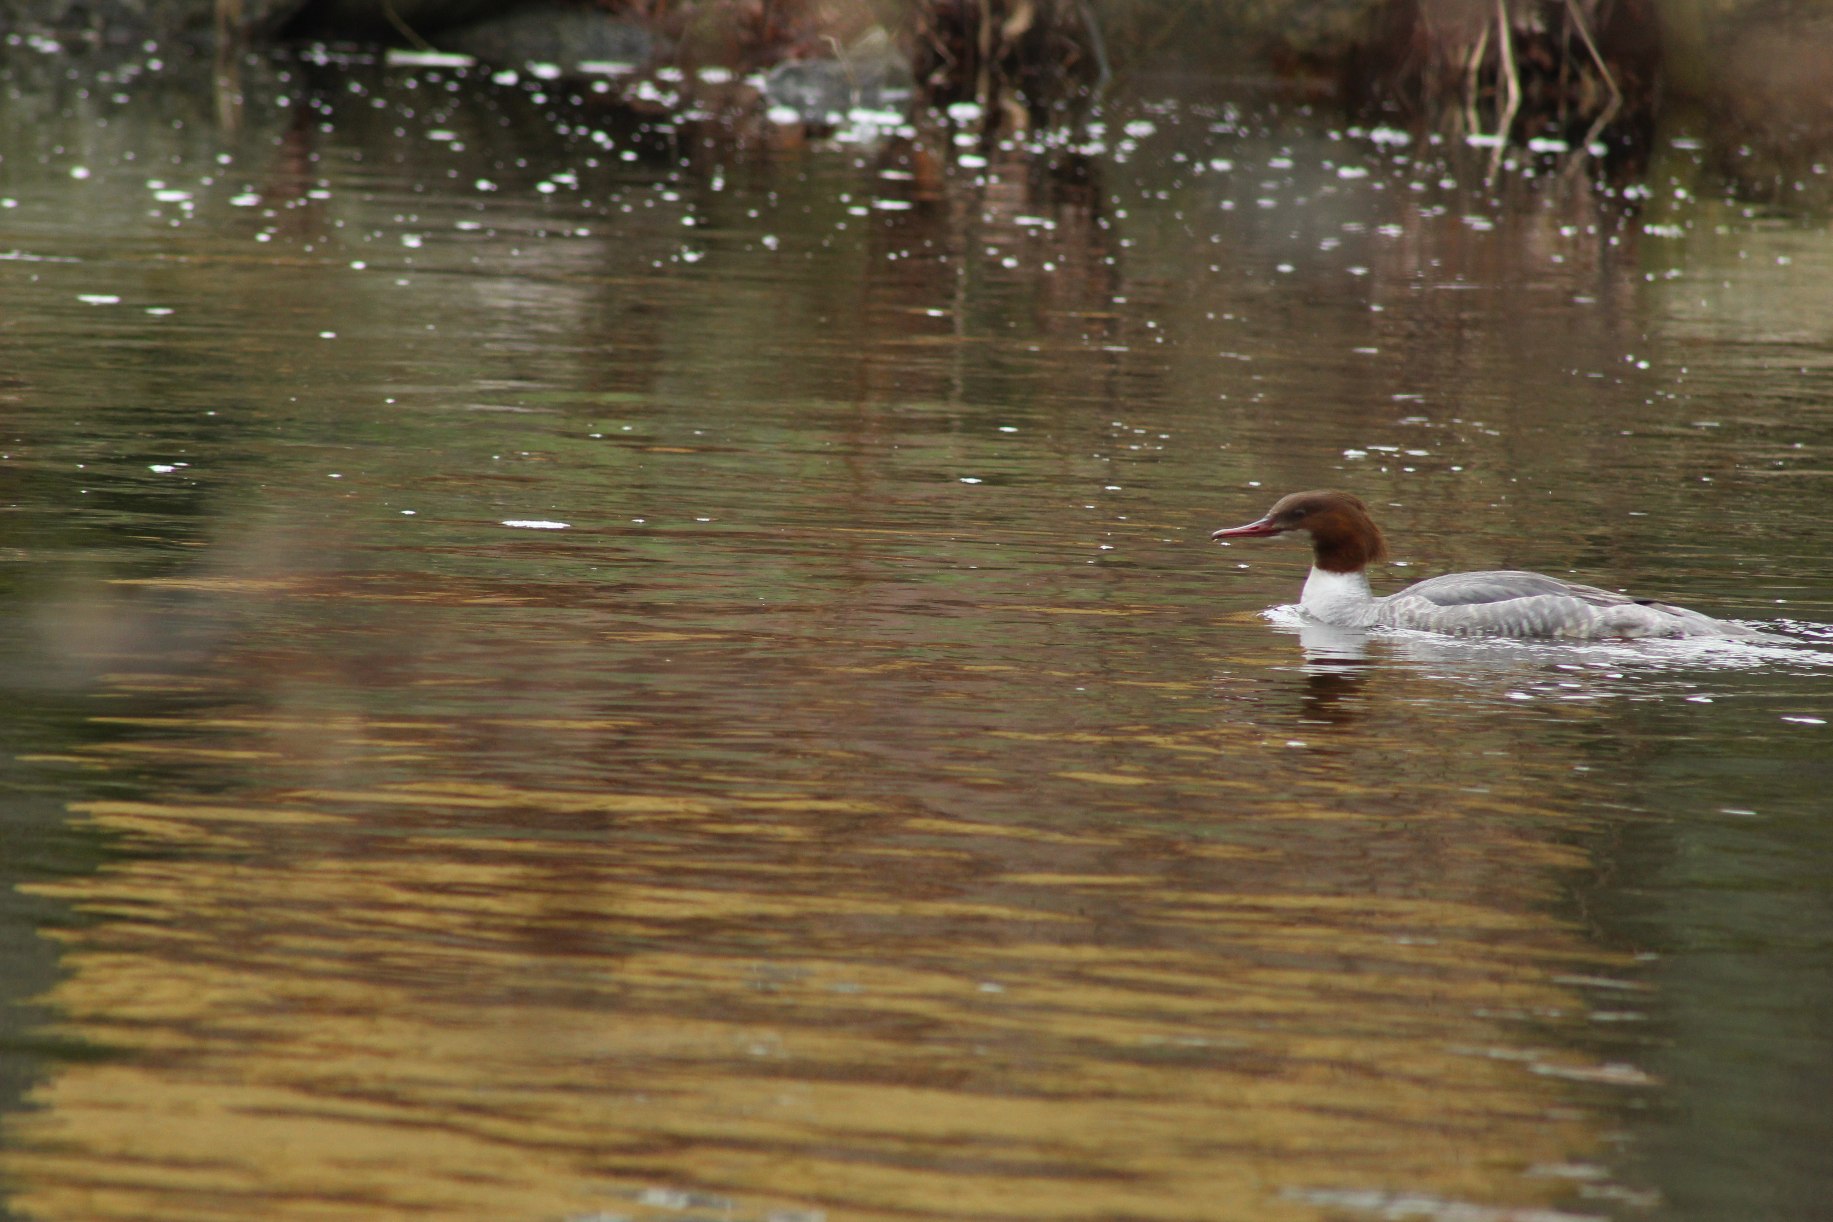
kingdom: Animalia
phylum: Chordata
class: Aves
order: Anseriformes
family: Anatidae
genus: Mergus
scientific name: Mergus merganser
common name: Stor skallesluger
